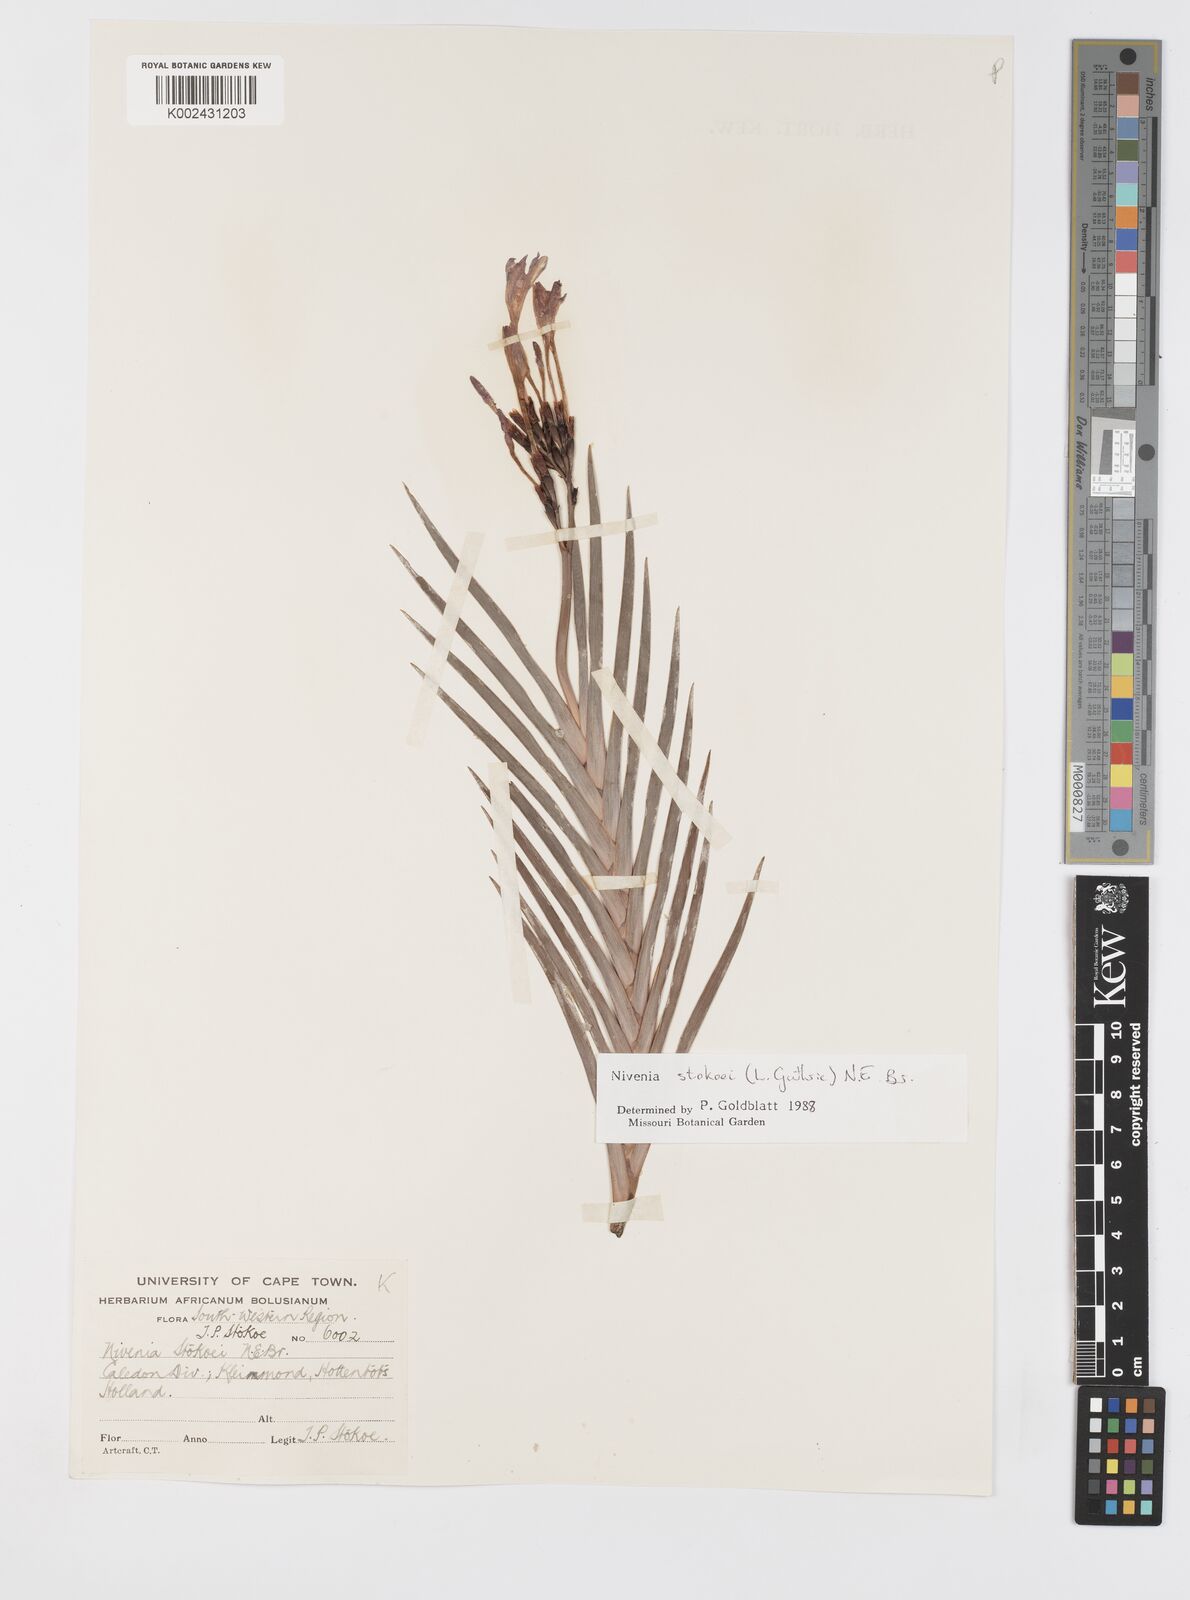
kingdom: Plantae
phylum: Tracheophyta
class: Liliopsida
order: Asparagales
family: Iridaceae
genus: Nivenia
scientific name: Nivenia stokoei
